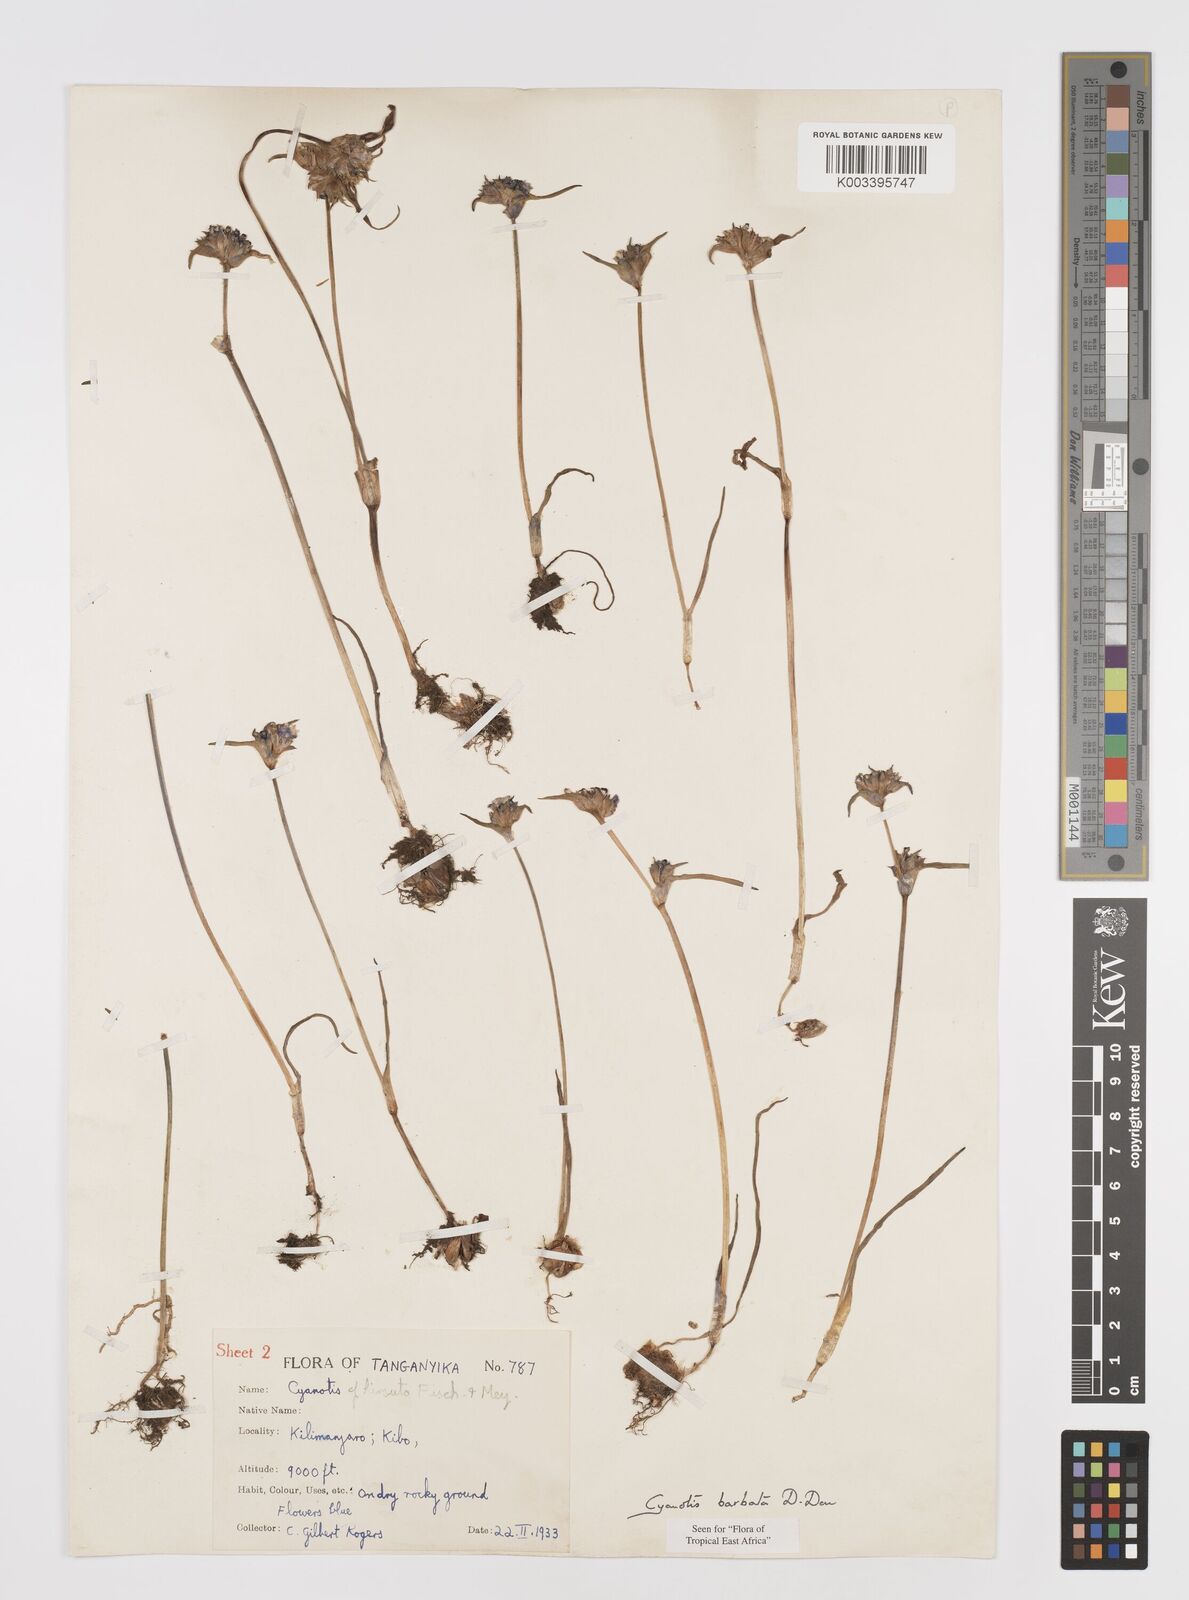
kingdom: Plantae
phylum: Tracheophyta
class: Liliopsida
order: Commelinales
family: Commelinaceae
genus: Cyanotis
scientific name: Cyanotis vaga
